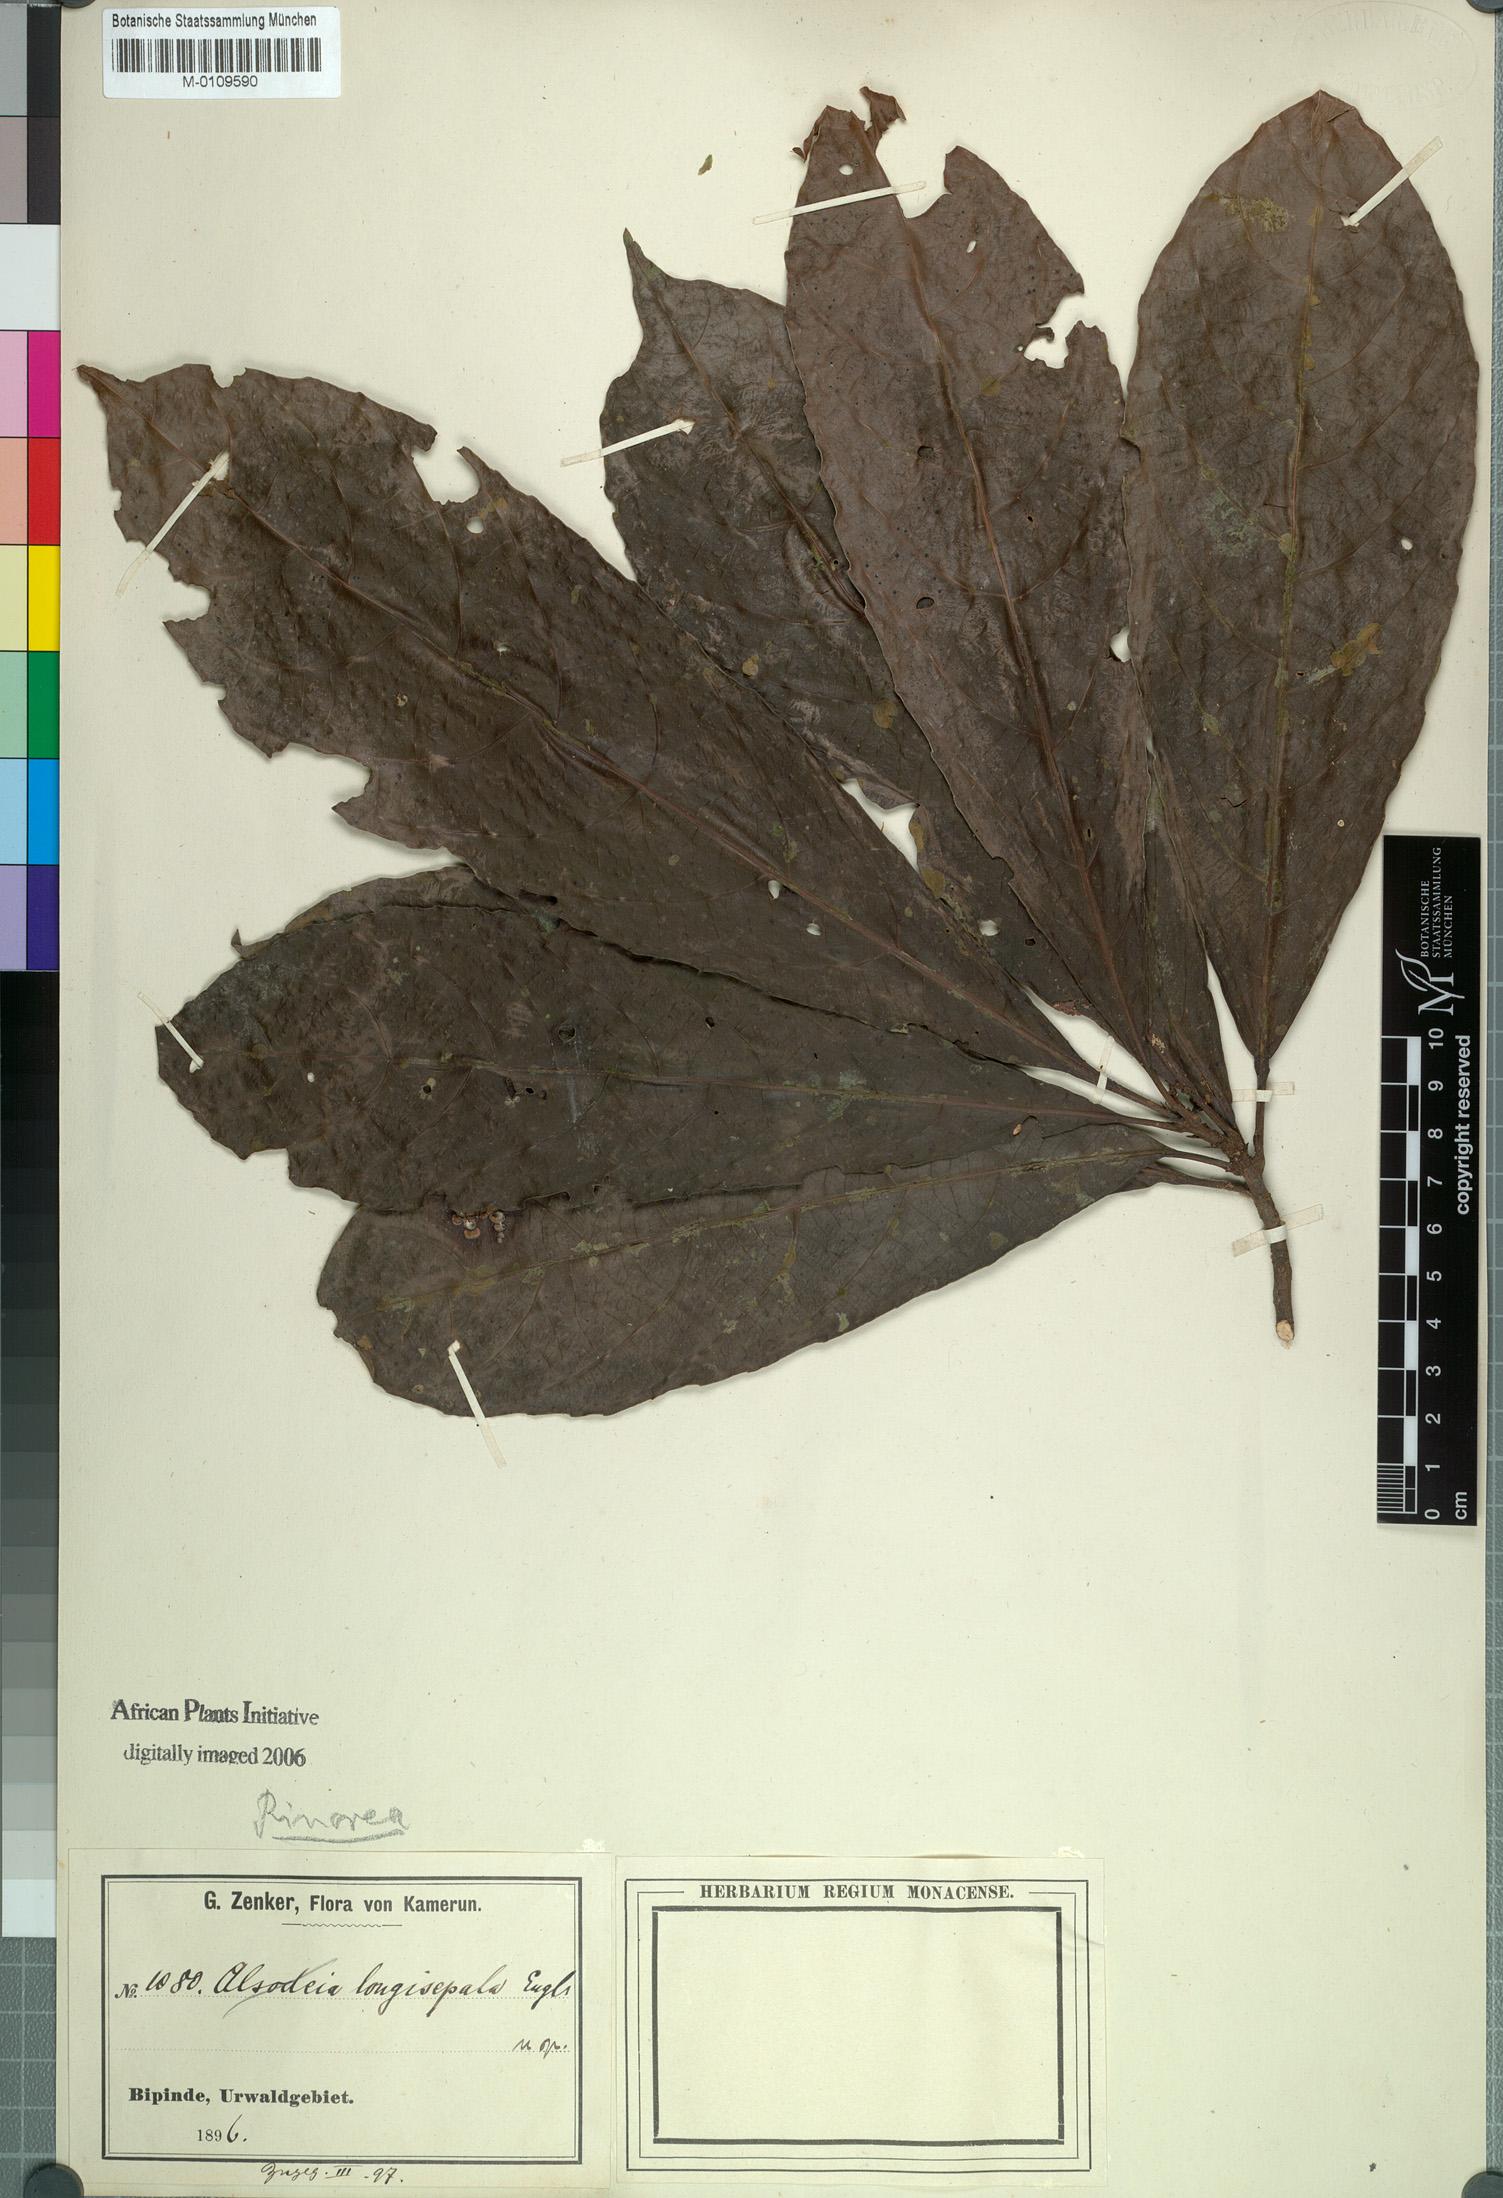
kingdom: Plantae
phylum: Tracheophyta
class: Magnoliopsida
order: Malpighiales
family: Violaceae
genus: Rinorea
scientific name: Rinorea longisepala
